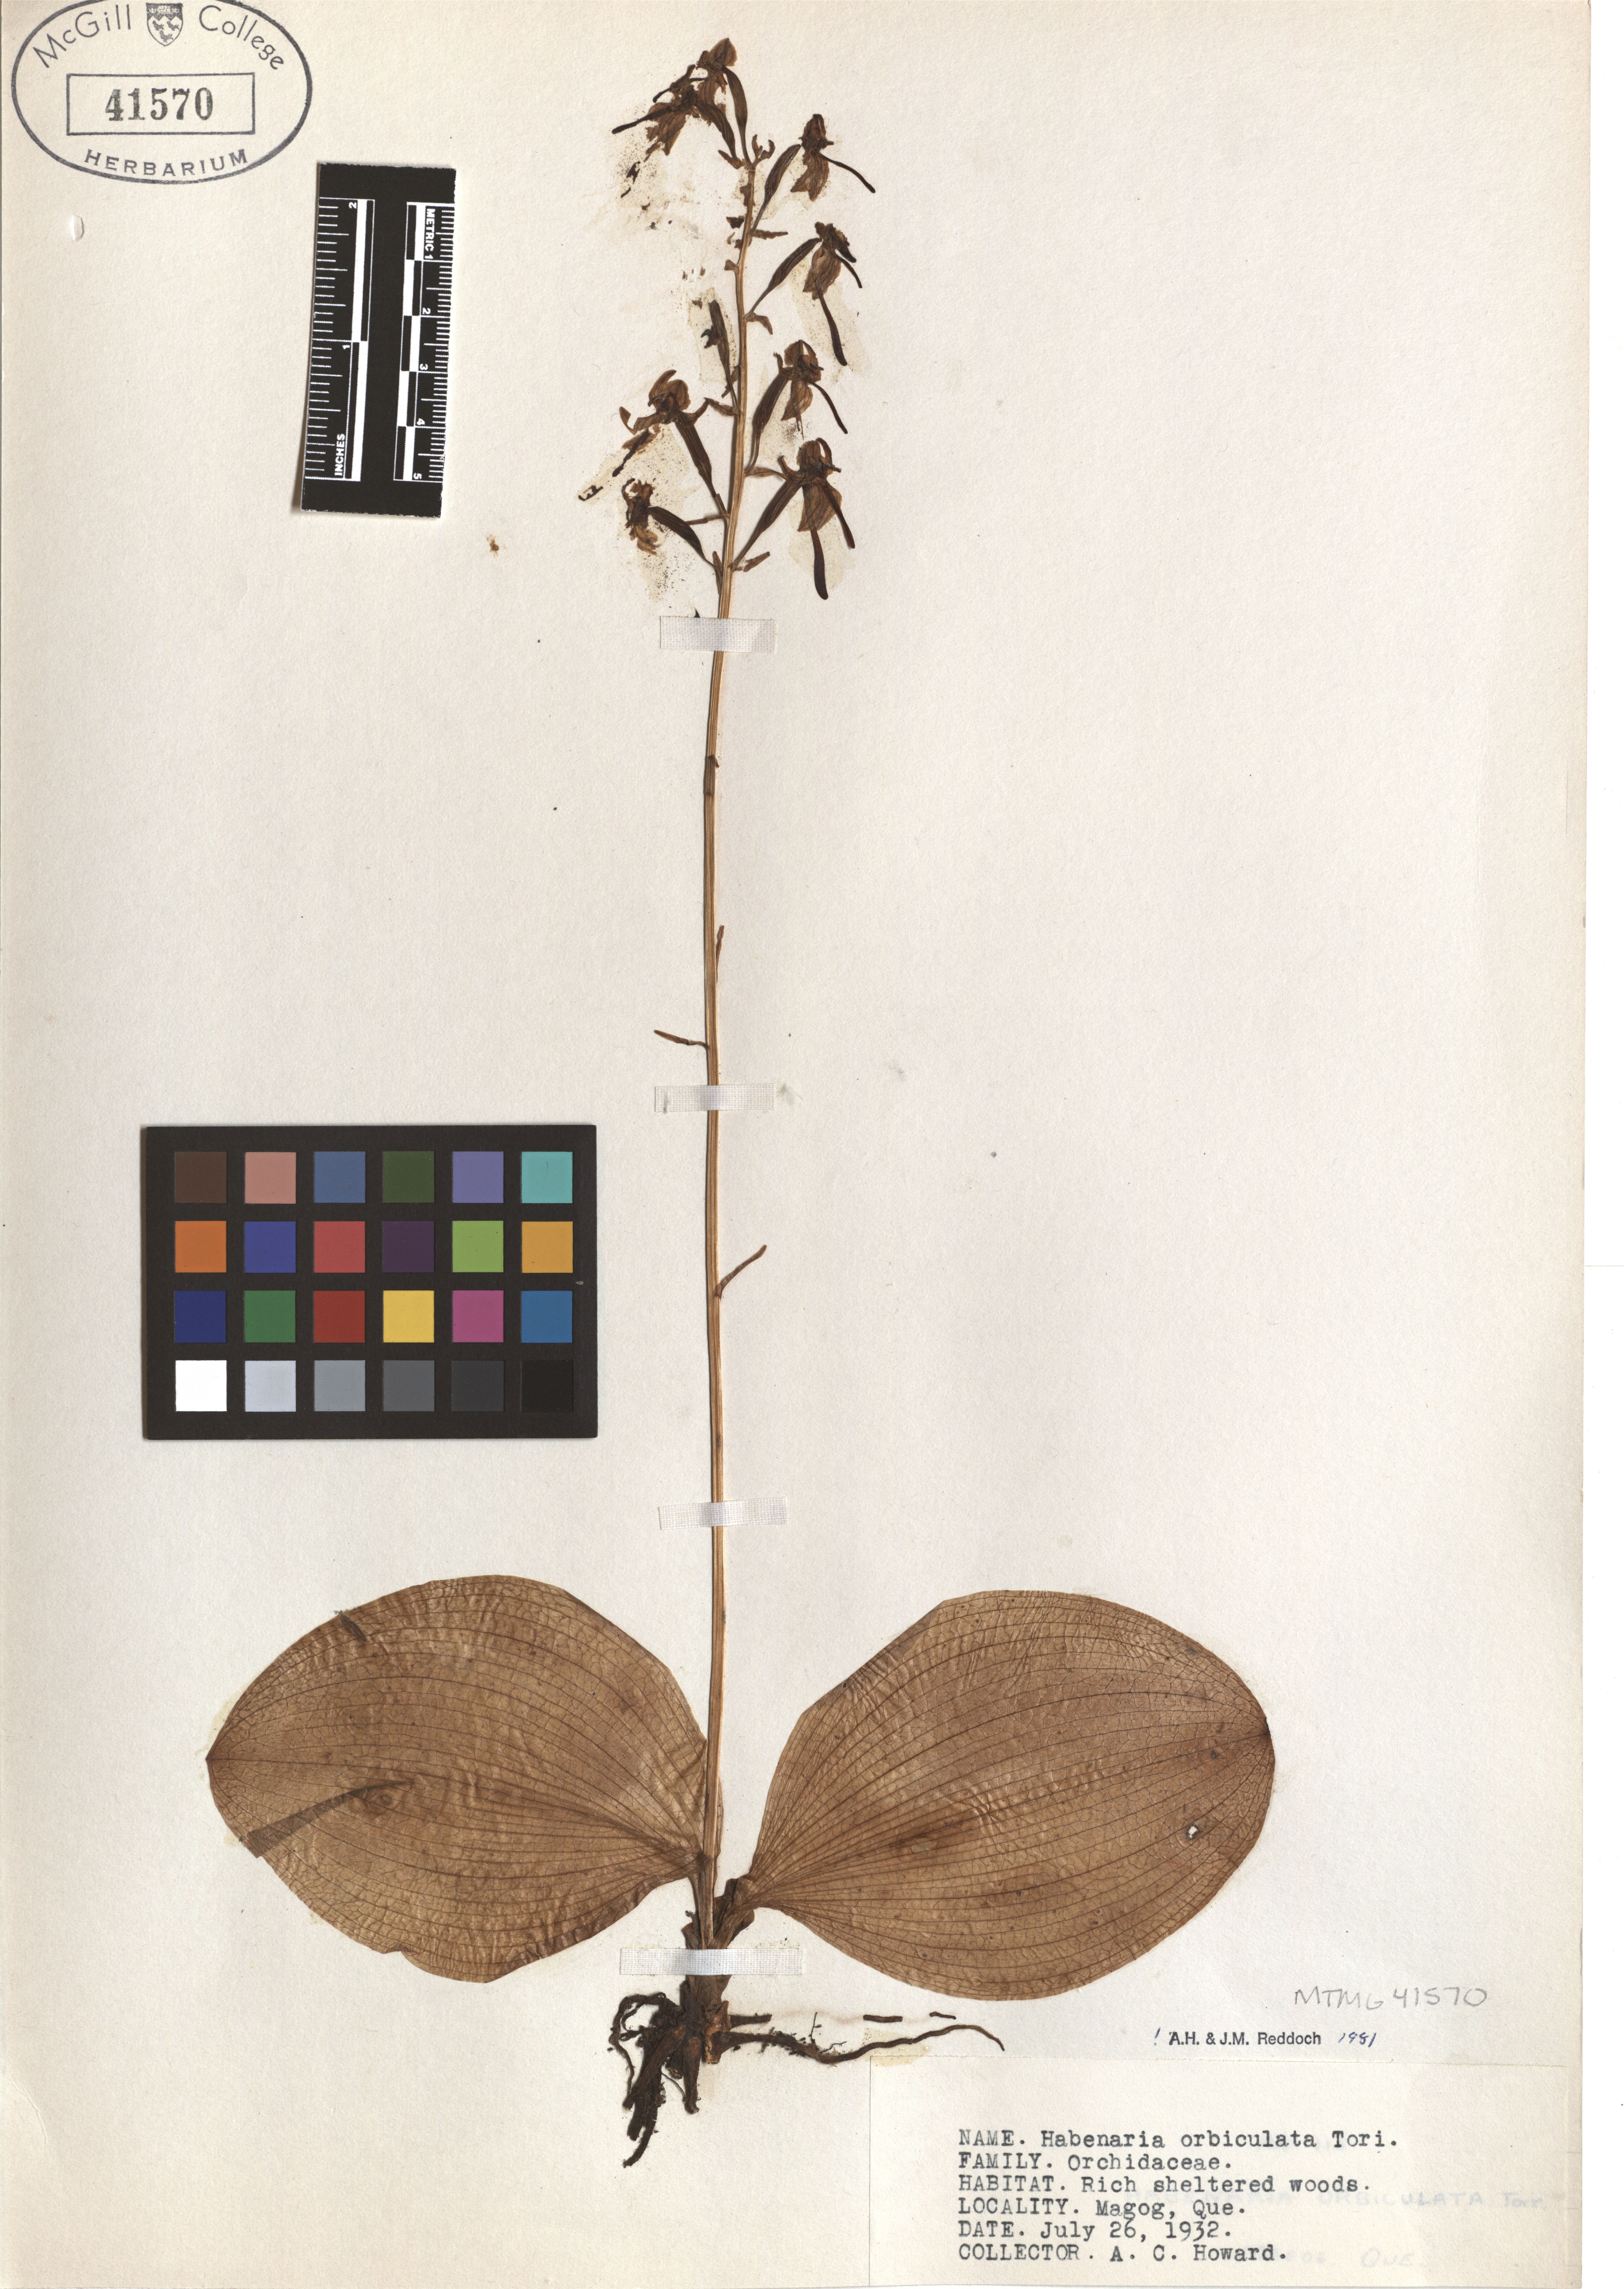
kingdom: Plantae
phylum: Tracheophyta
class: Liliopsida
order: Asparagales
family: Orchidaceae
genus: Platanthera
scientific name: Platanthera orbiculata
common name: Large round-leaved orchid
